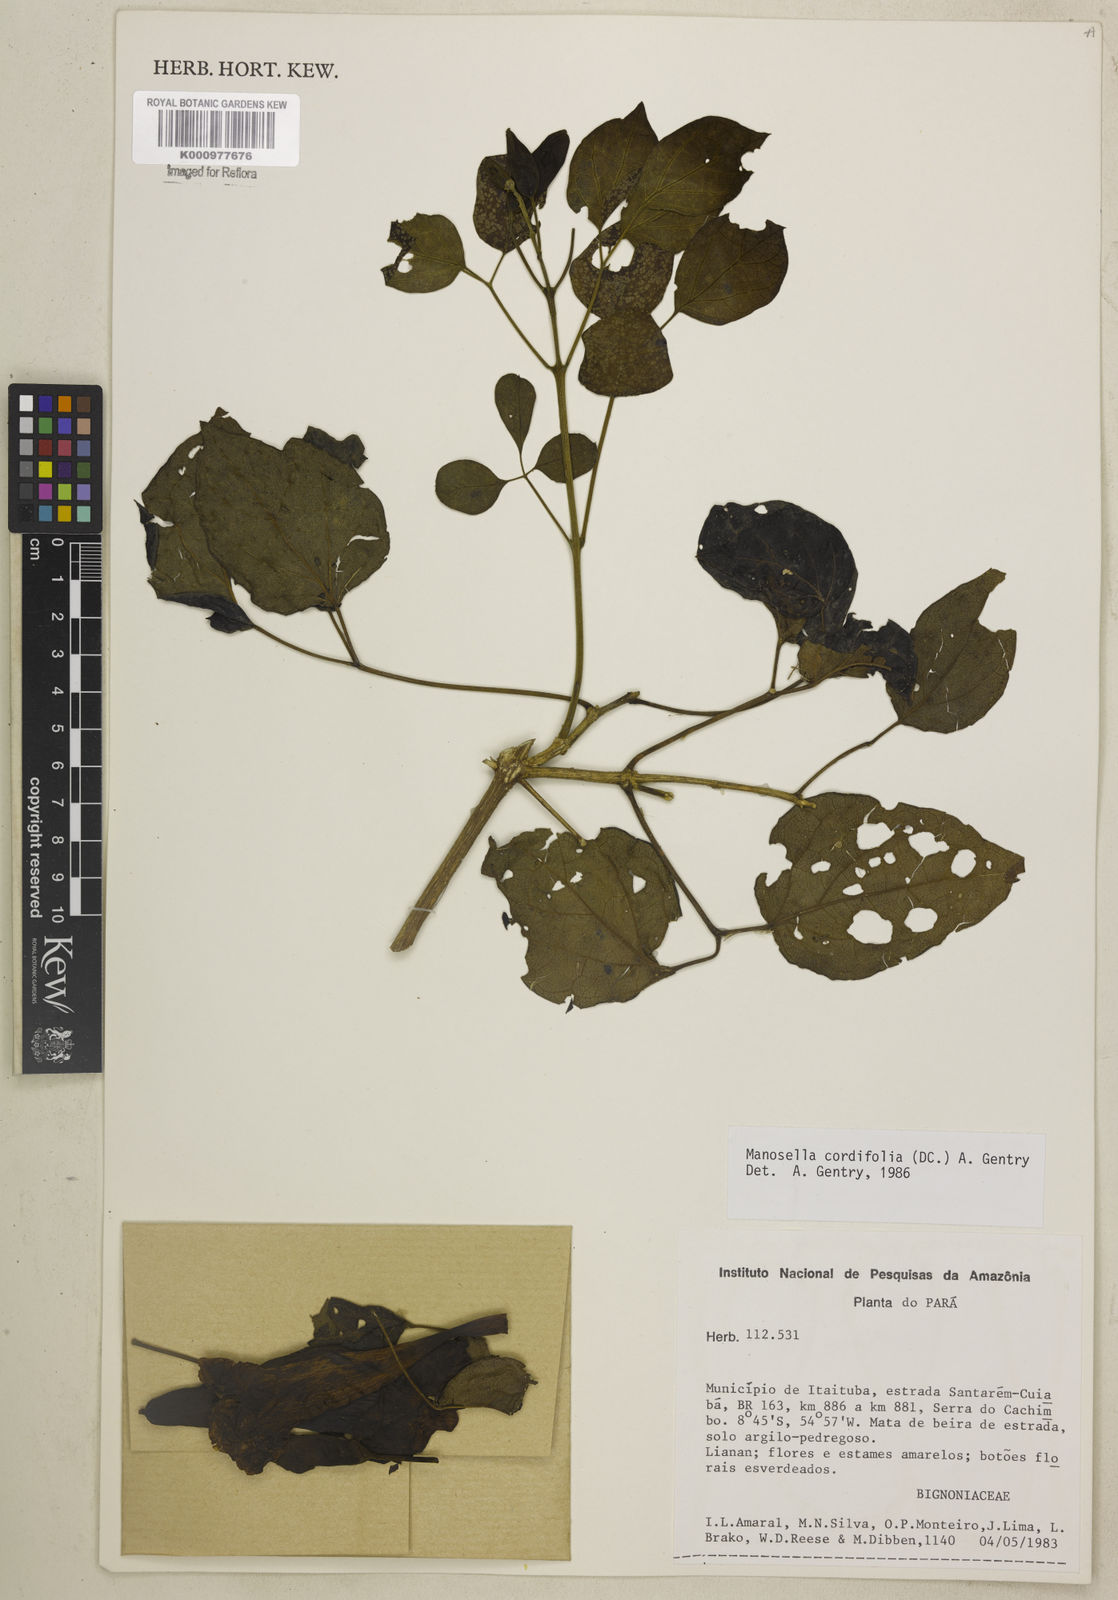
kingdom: Plantae
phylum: Tracheophyta
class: Magnoliopsida
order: Lamiales
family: Bignoniaceae
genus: Manaosella
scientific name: Manaosella cordifolia
